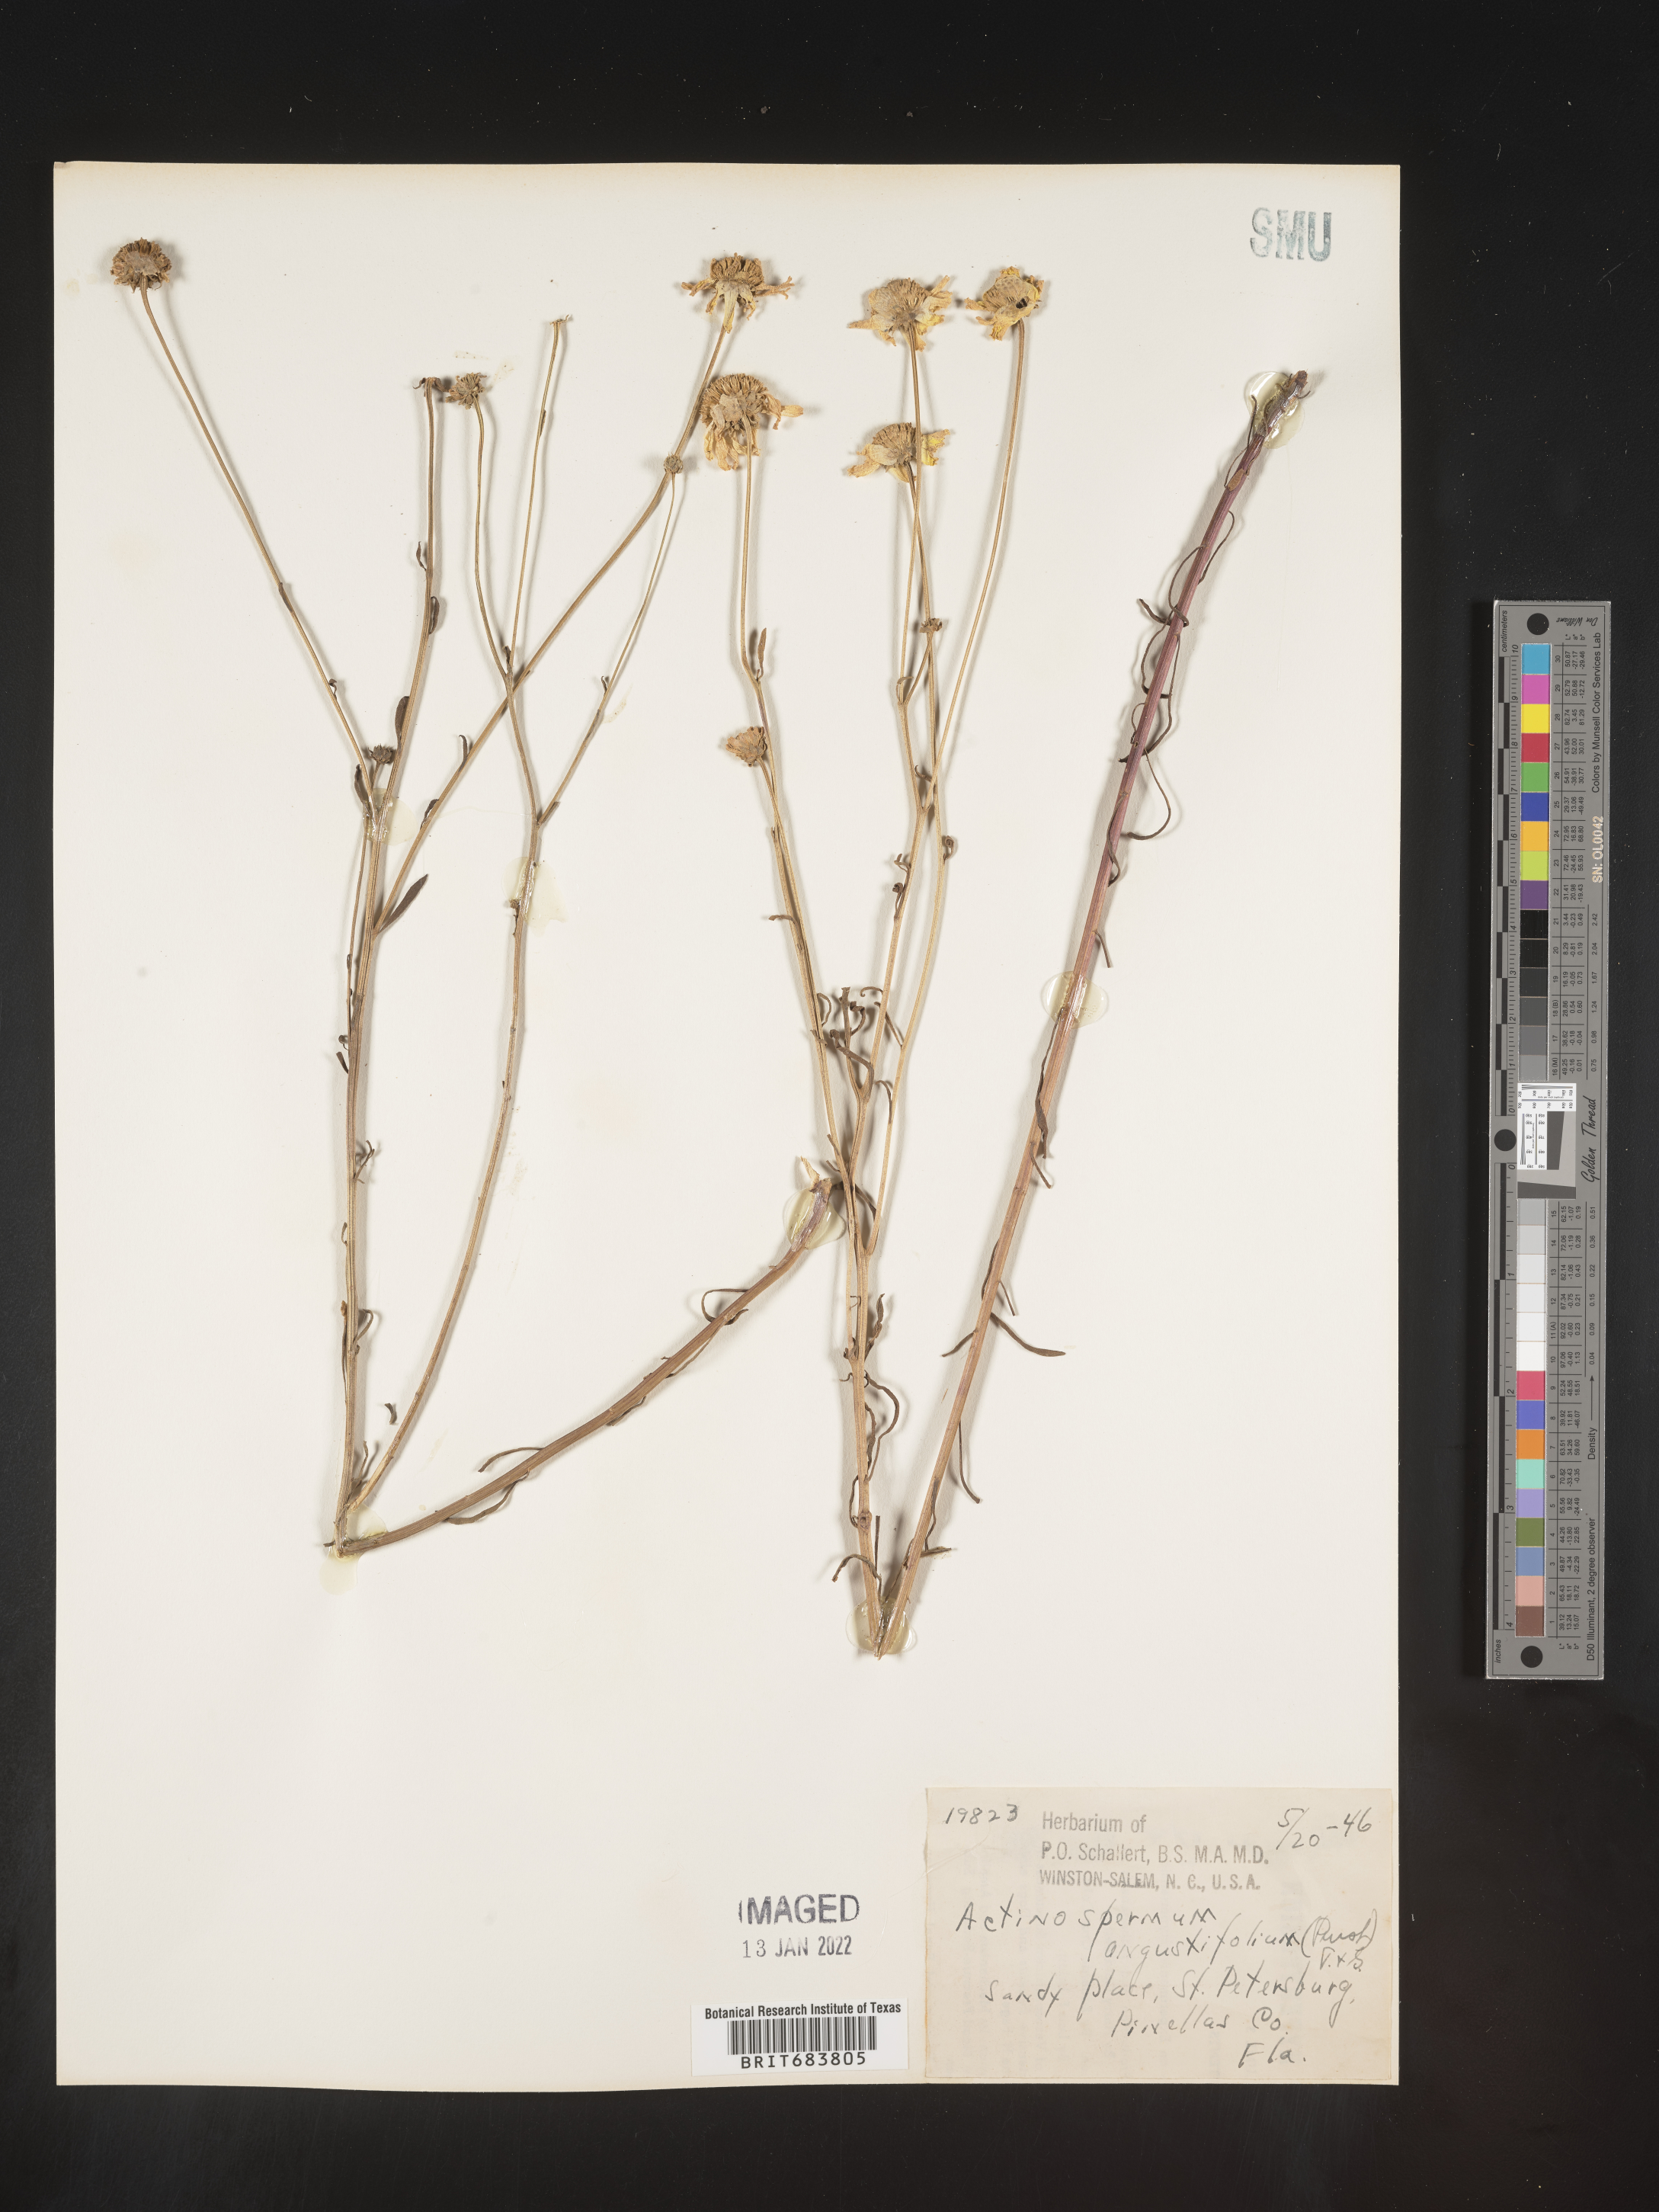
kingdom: Plantae
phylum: Tracheophyta
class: Magnoliopsida
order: Asterales
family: Asteraceae
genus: Balduina
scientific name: Balduina angustifolia
